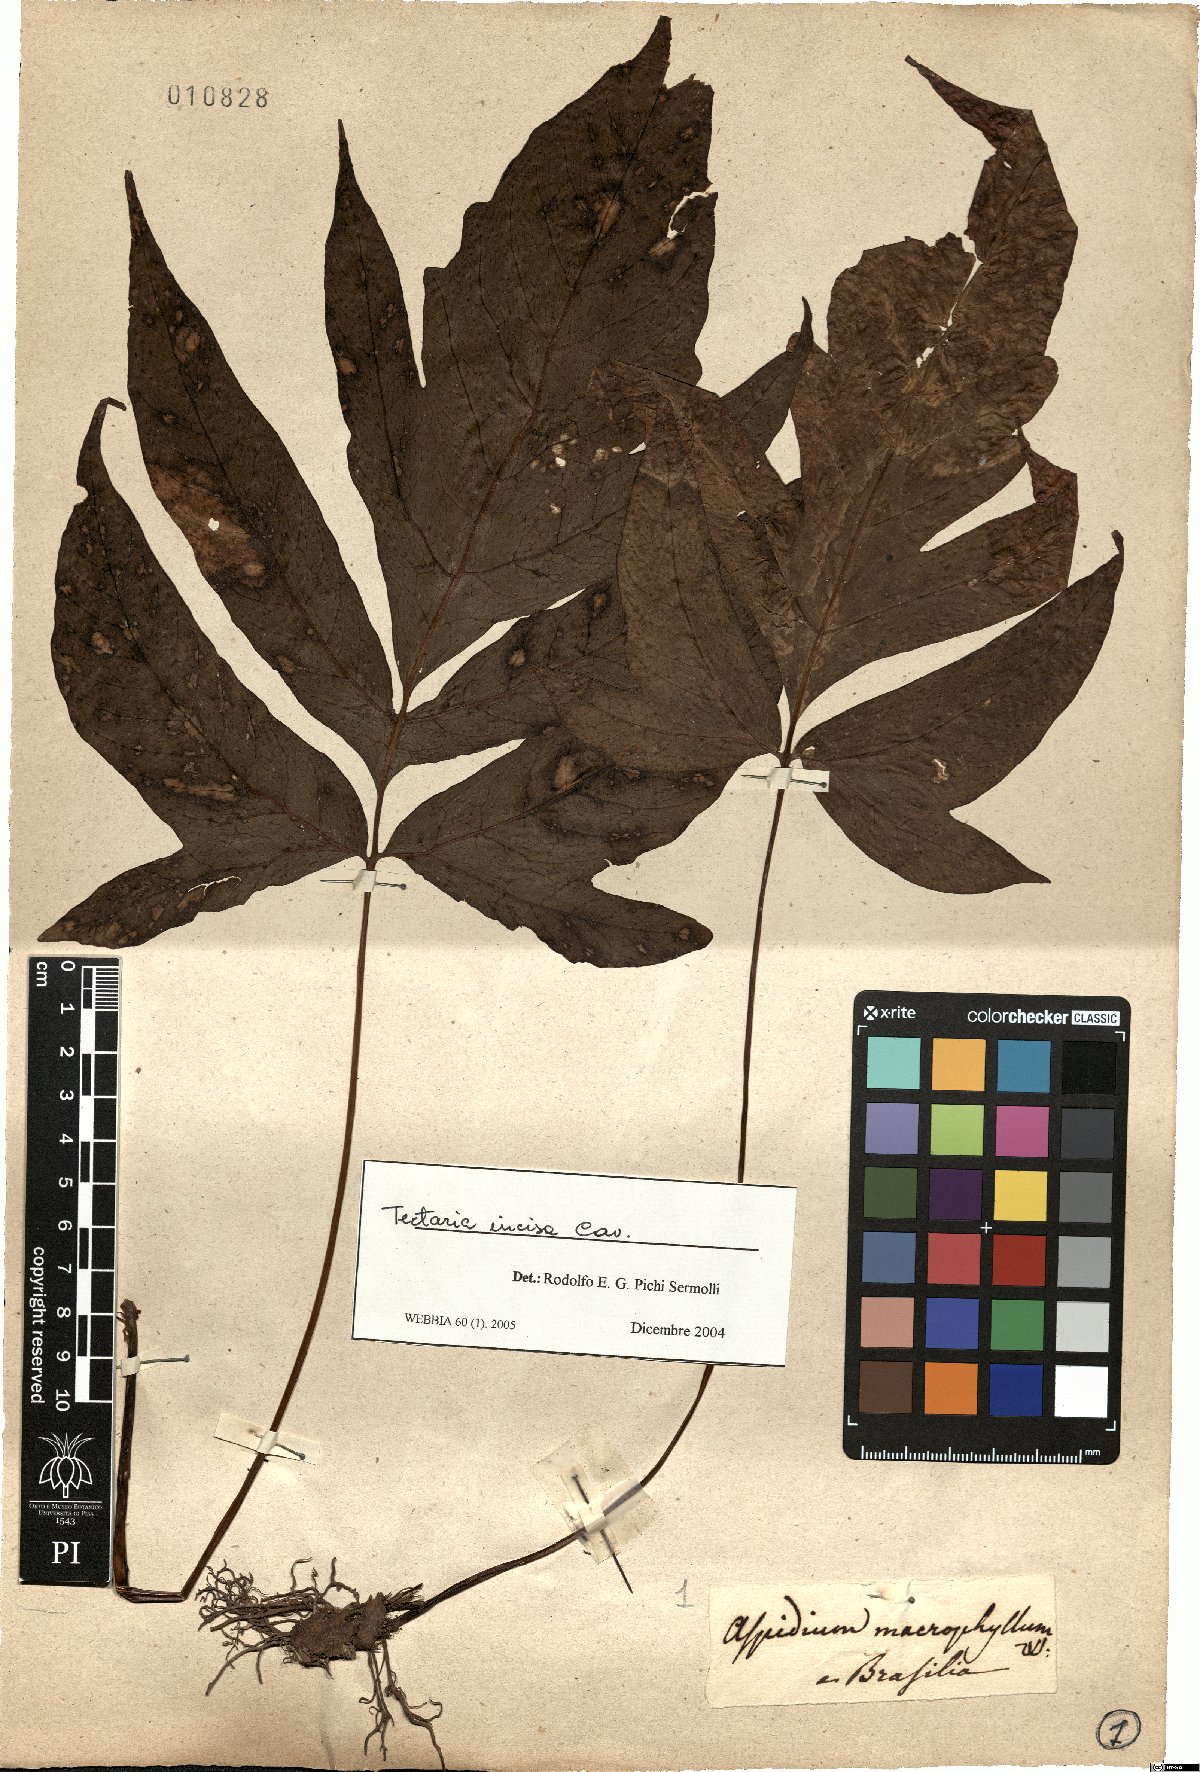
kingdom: Plantae
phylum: Tracheophyta
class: Polypodiopsida
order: Polypodiales
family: Tectariaceae
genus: Tectaria
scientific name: Tectaria incisa
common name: Incised halberd fern
